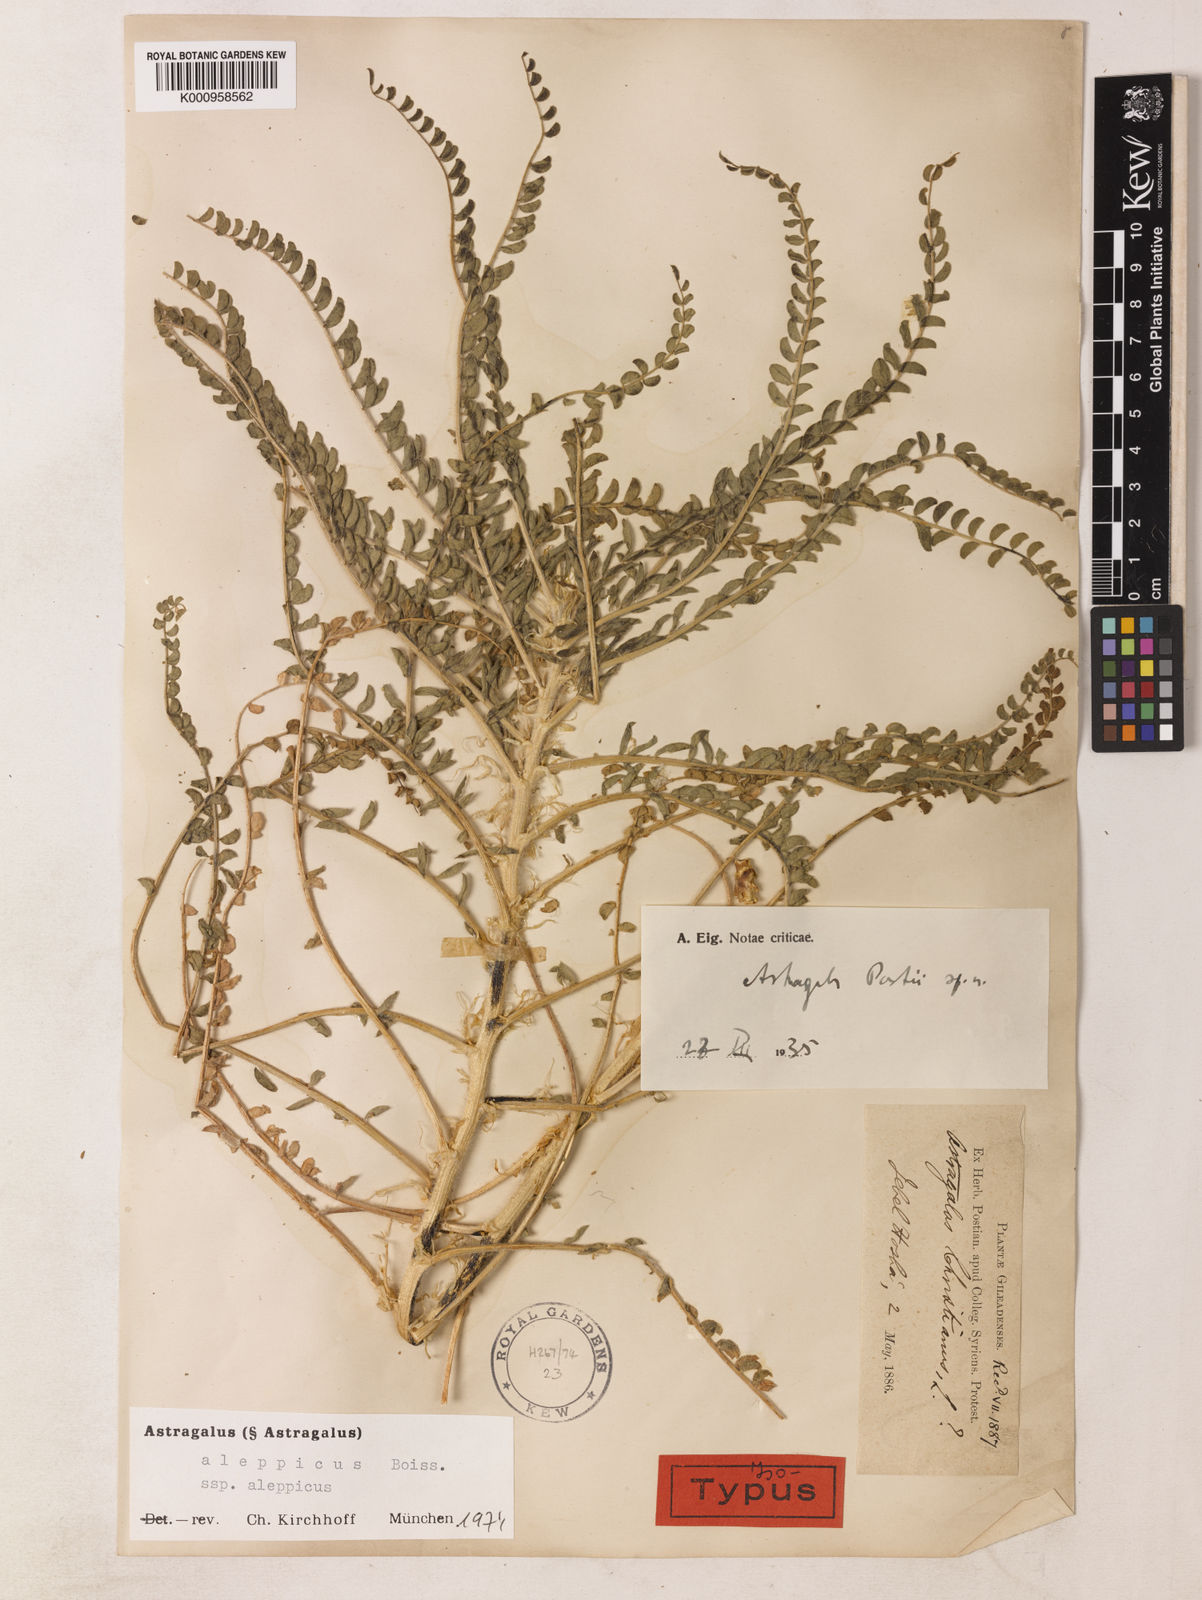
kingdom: Plantae
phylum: Tracheophyta
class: Magnoliopsida
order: Fabales
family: Fabaceae
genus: Astragalus
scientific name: Astragalus aleppicus
